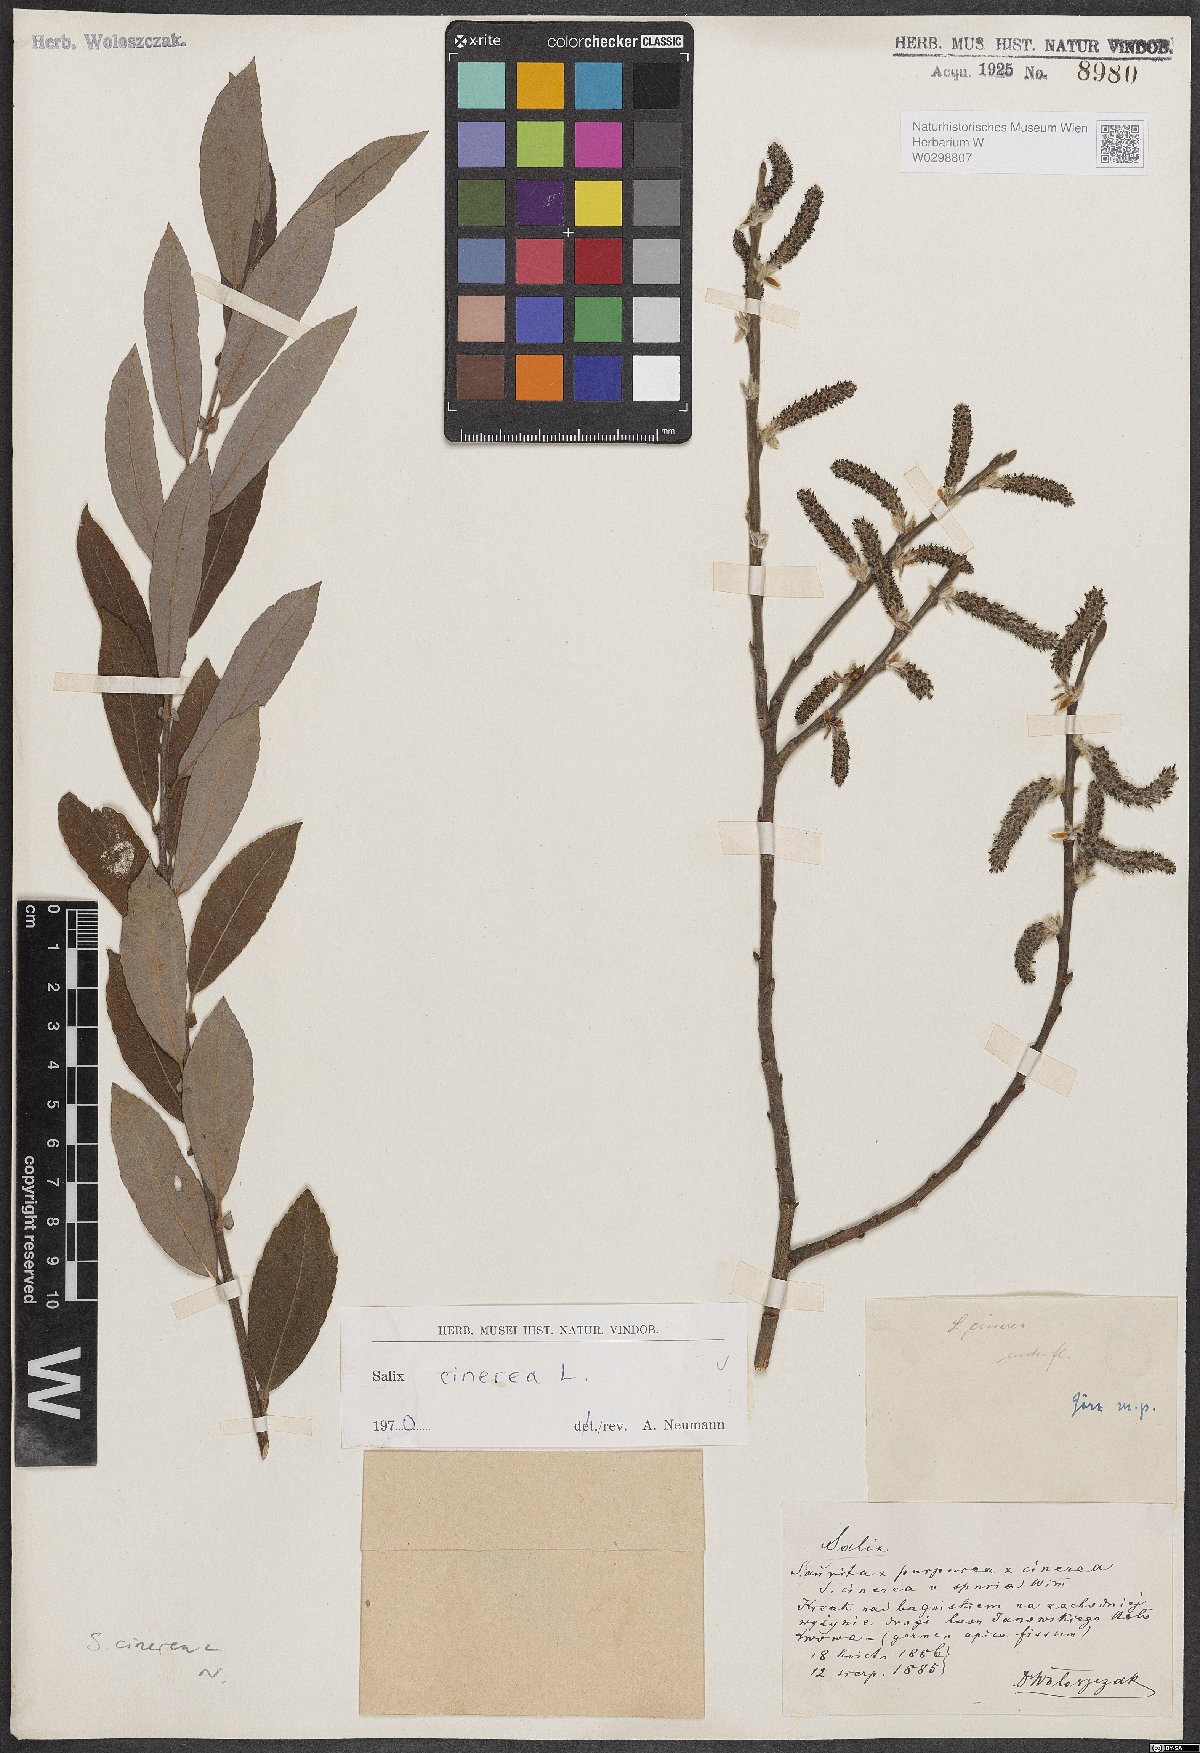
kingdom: Plantae
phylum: Tracheophyta
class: Magnoliopsida
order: Malpighiales
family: Salicaceae
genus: Salix
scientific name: Salix cinerea
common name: Common sallow
